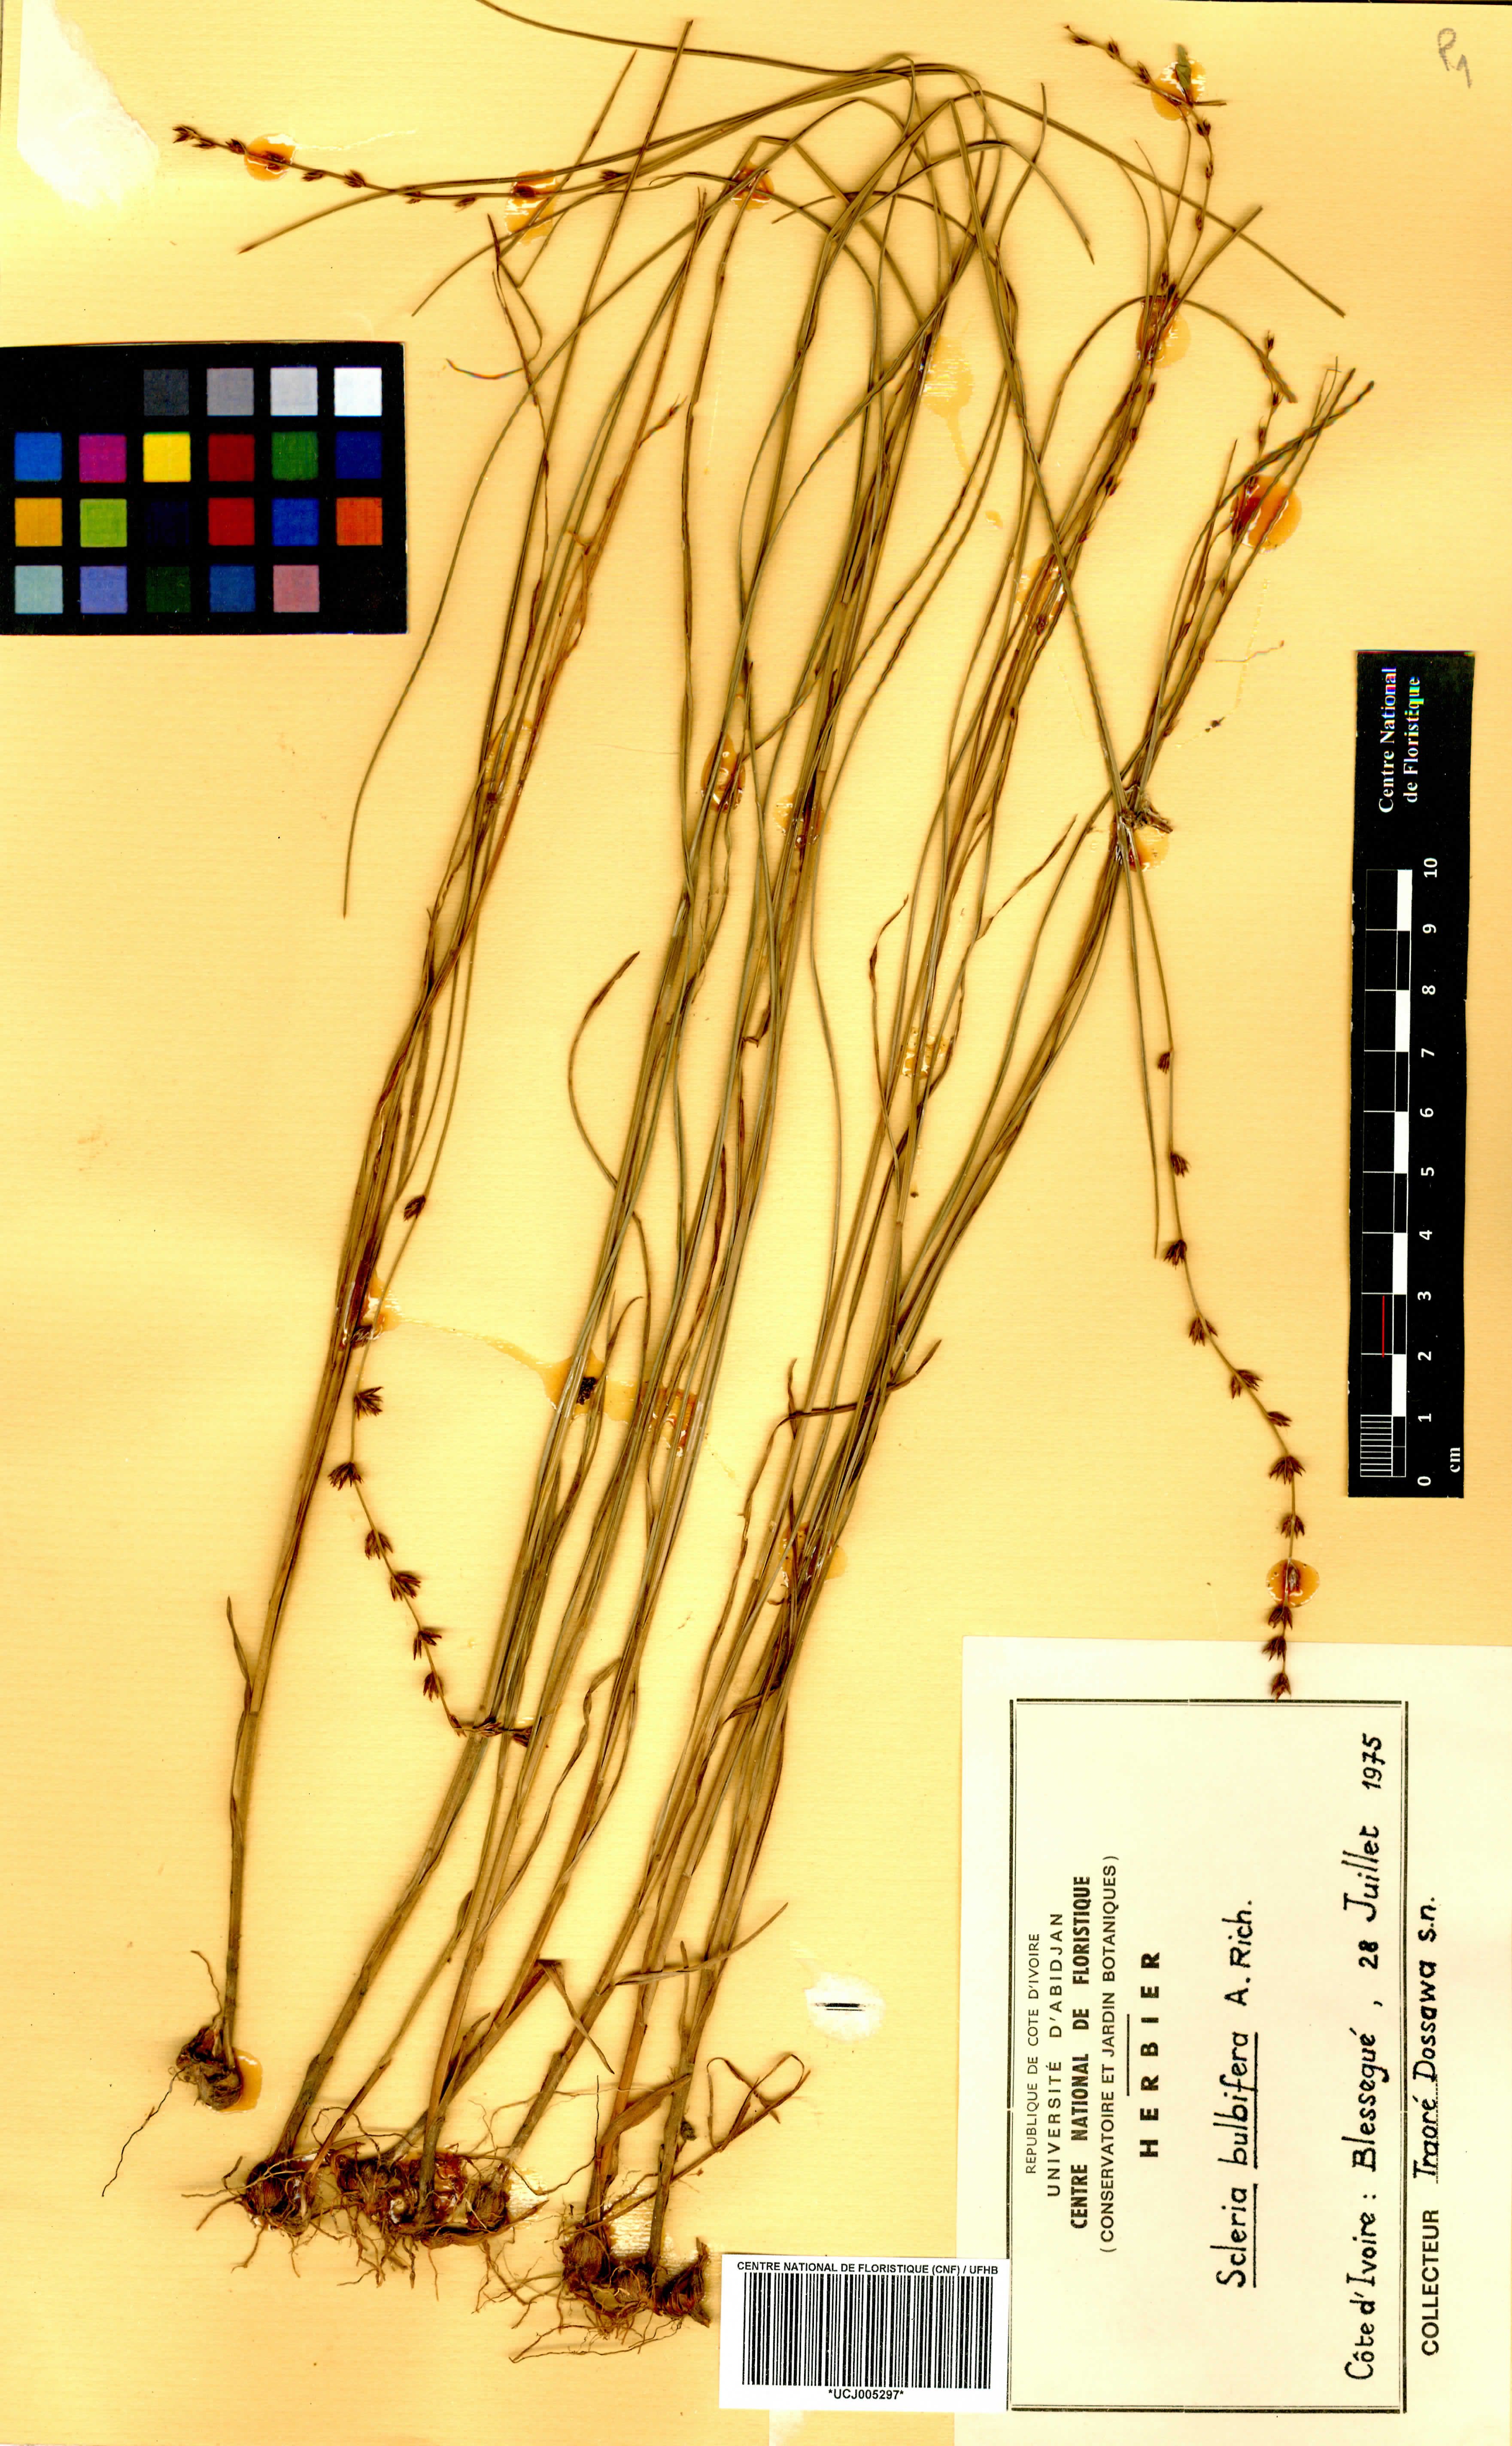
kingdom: Plantae
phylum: Tracheophyta
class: Liliopsida
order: Poales
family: Cyperaceae
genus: Scleria
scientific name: Scleria bulbifera
